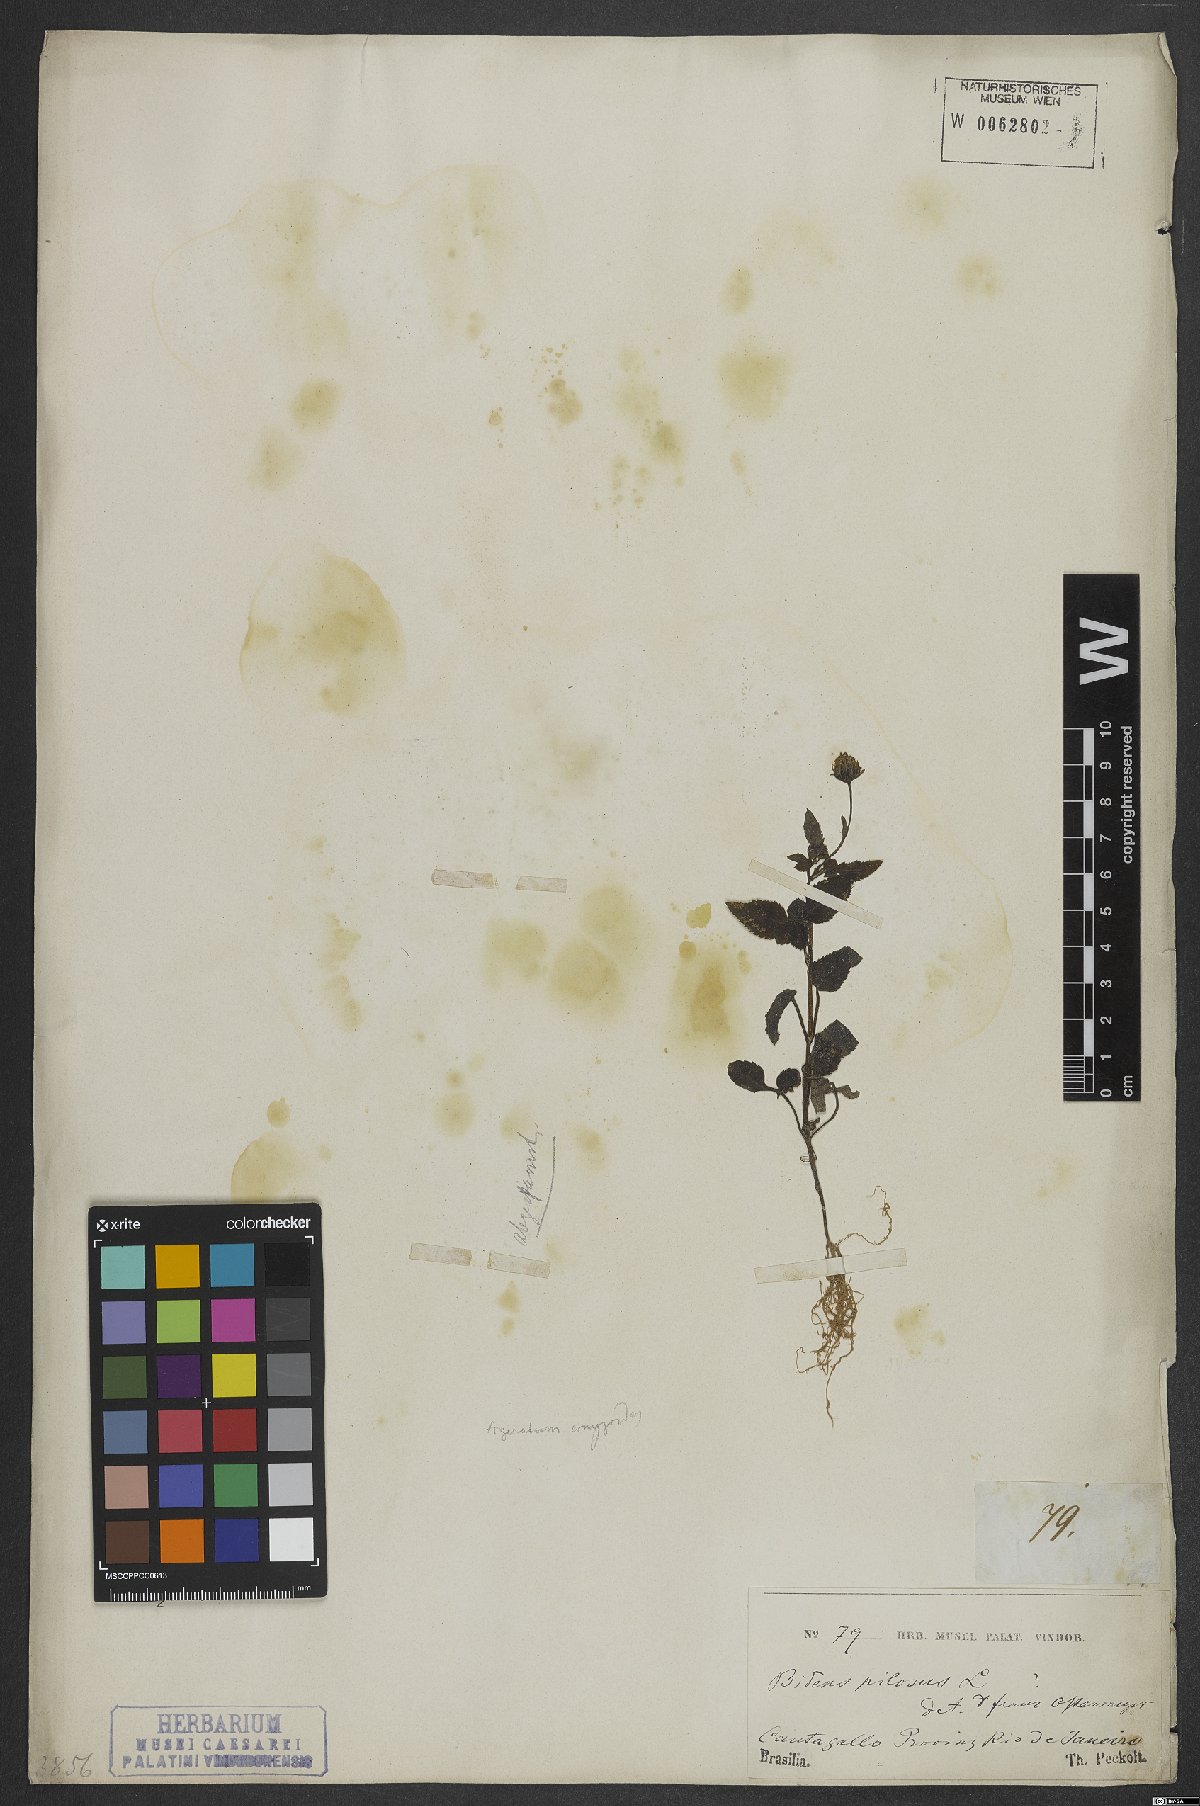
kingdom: Plantae
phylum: Tracheophyta
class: Magnoliopsida
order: Asterales
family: Asteraceae
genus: Bidens
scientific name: Bidens pilosa
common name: Black-jack
